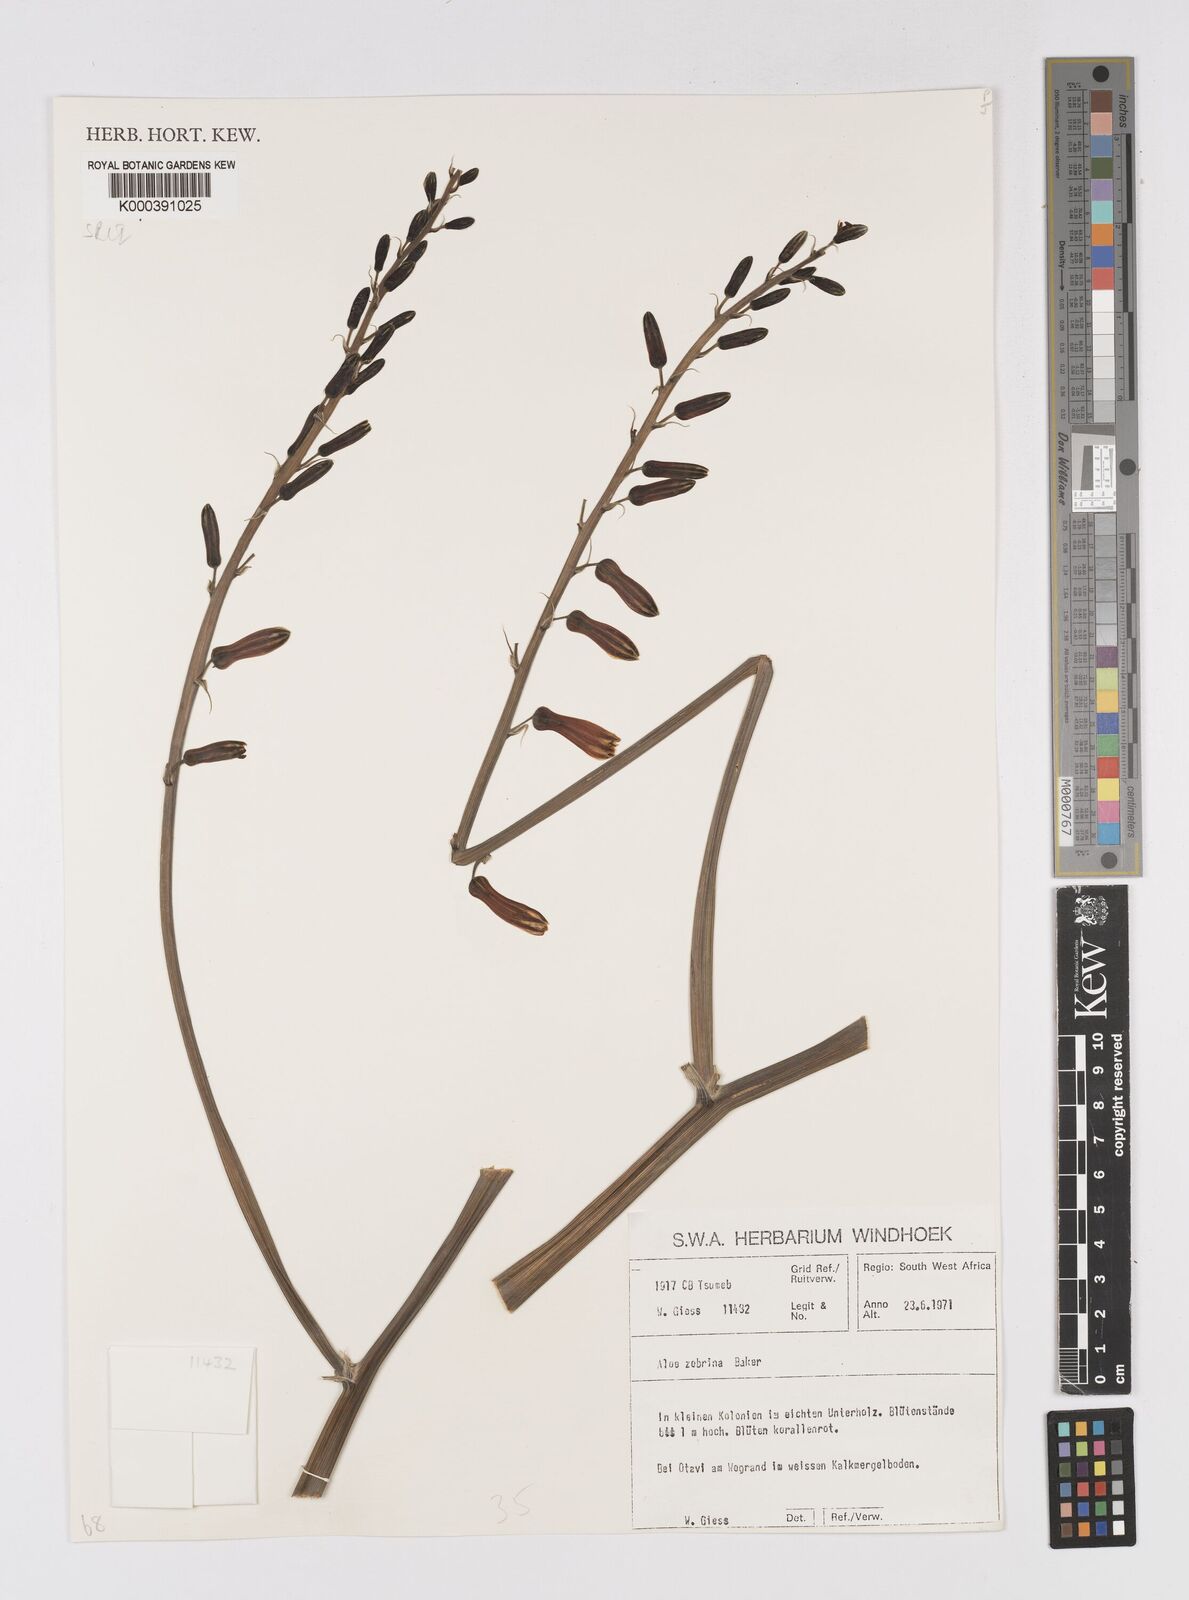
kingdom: Plantae
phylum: Tracheophyta
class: Liliopsida
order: Asparagales
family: Asphodelaceae
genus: Aloe
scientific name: Aloe zebrina
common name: Zebra-leaf aloe
